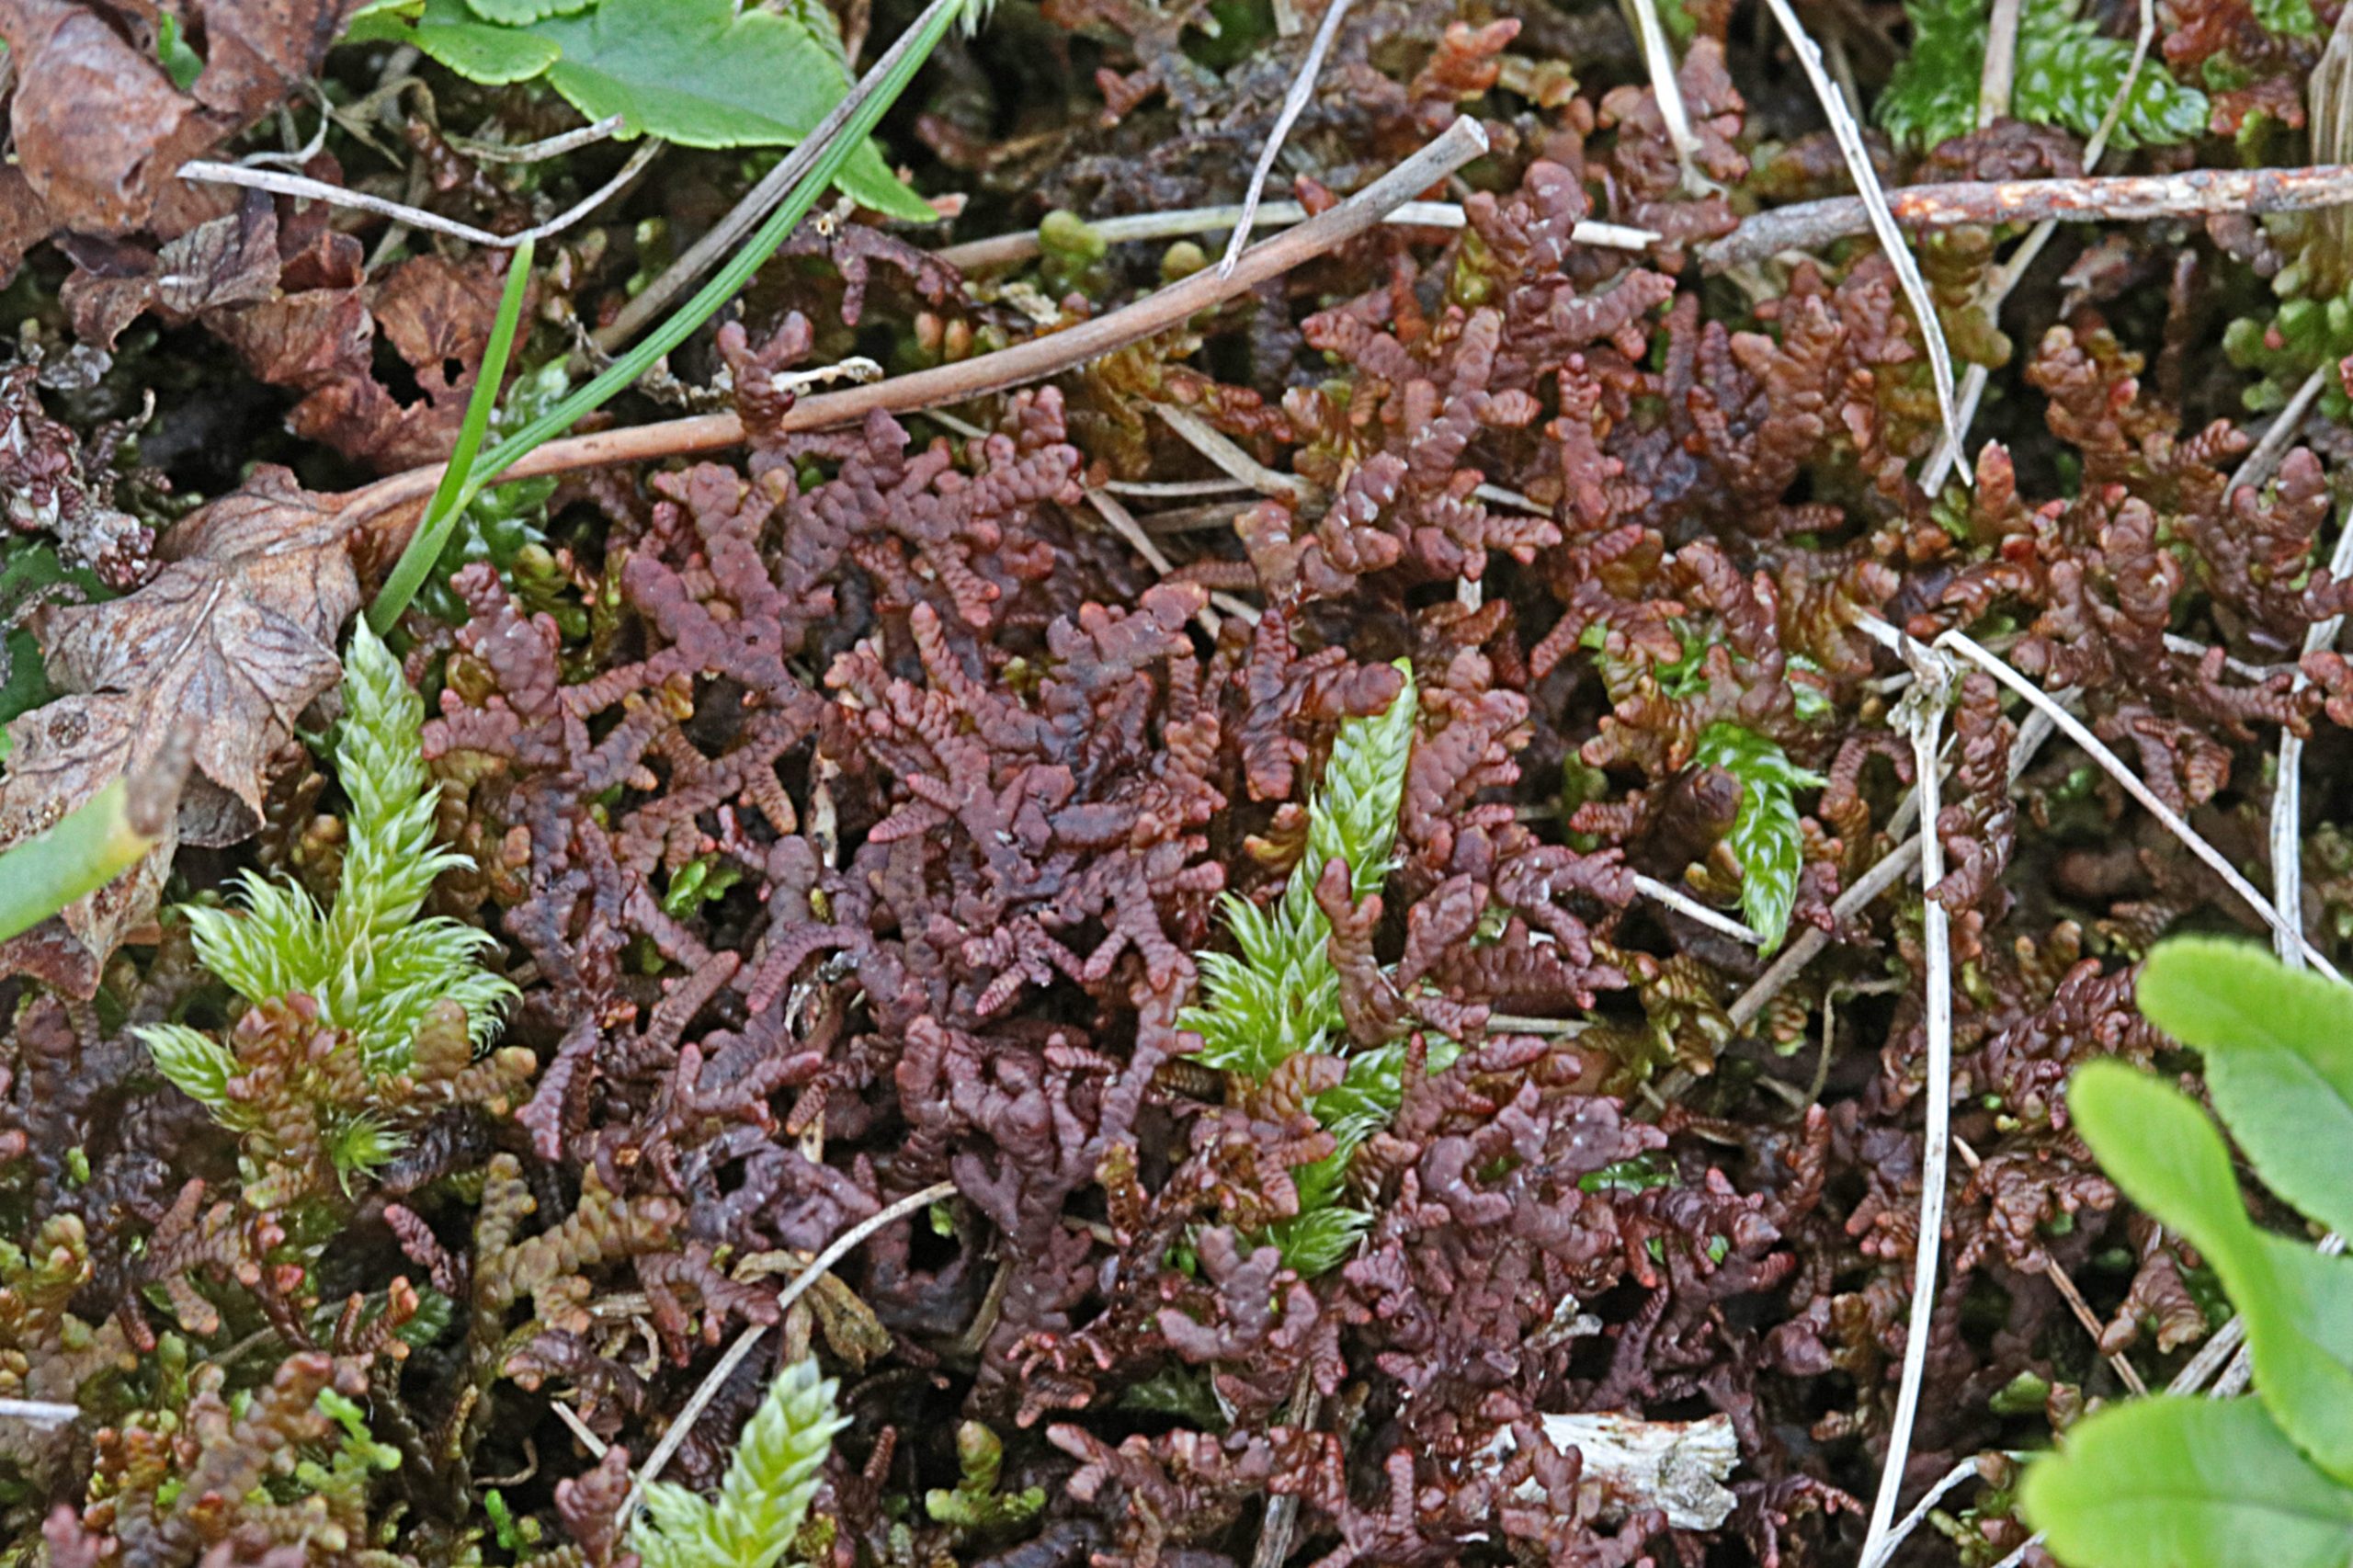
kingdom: Plantae
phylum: Marchantiophyta
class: Jungermanniopsida
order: Porellales
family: Frullaniaceae
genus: Frullania
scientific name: Frullania tamarisci
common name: Glinsende bronzemos
